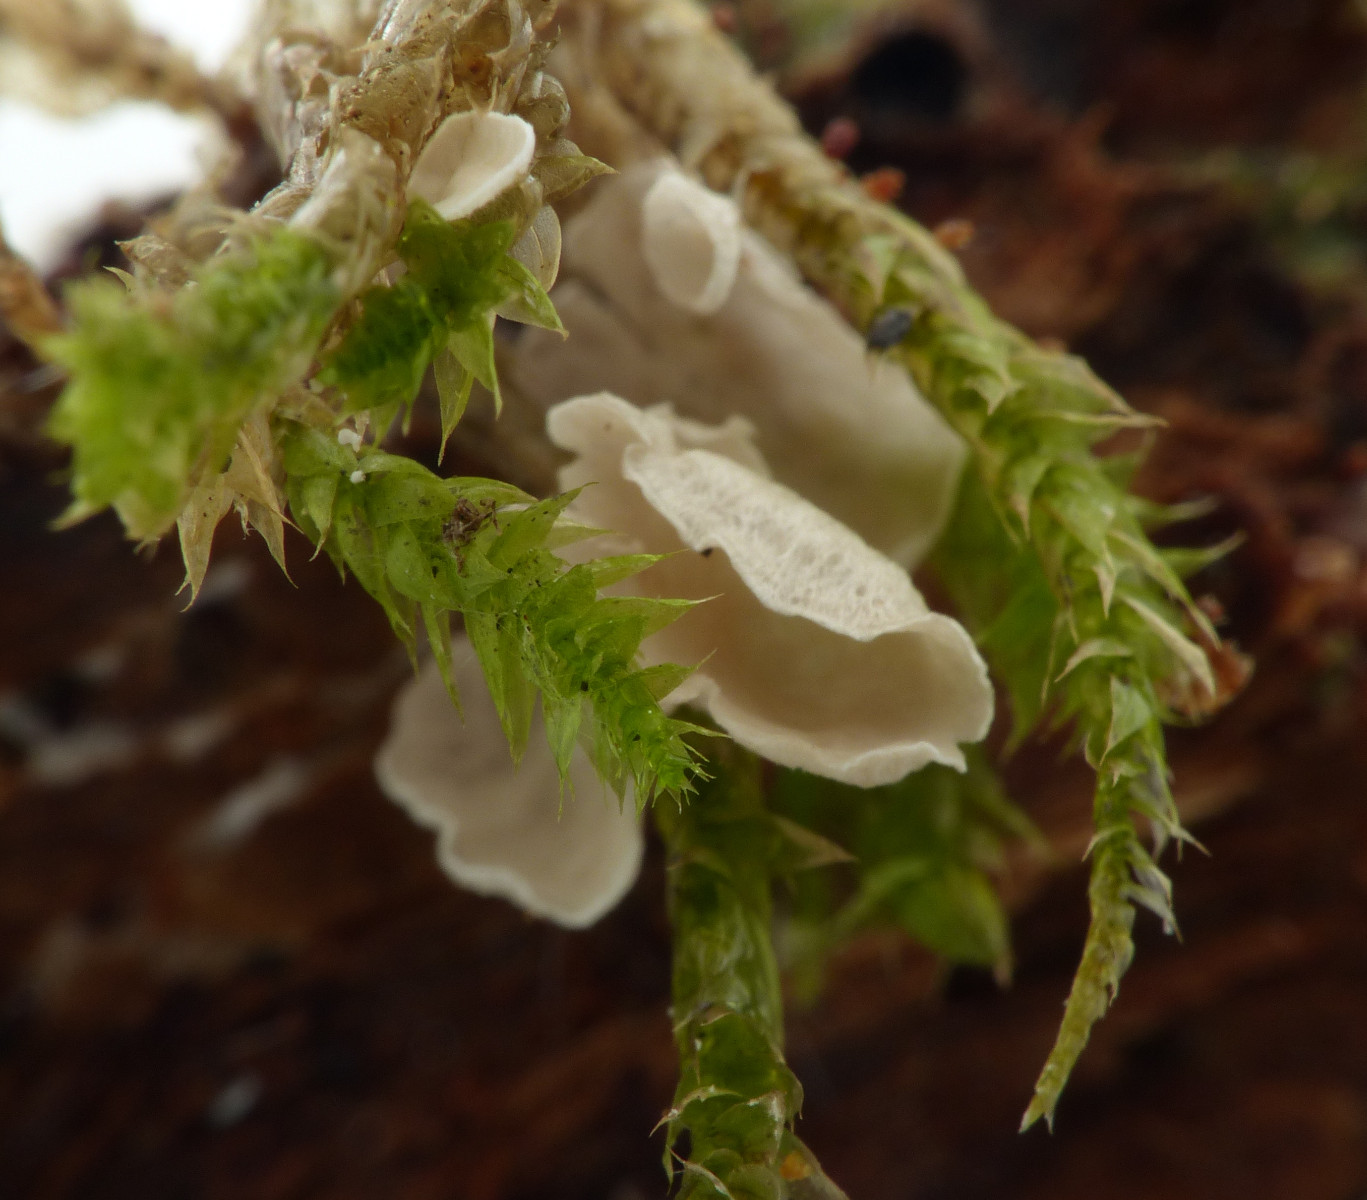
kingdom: Fungi
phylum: Basidiomycota
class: Agaricomycetes
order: Agaricales
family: Hygrophoraceae
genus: Arrhenia
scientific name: Arrhenia retiruga
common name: lille fontænehat
